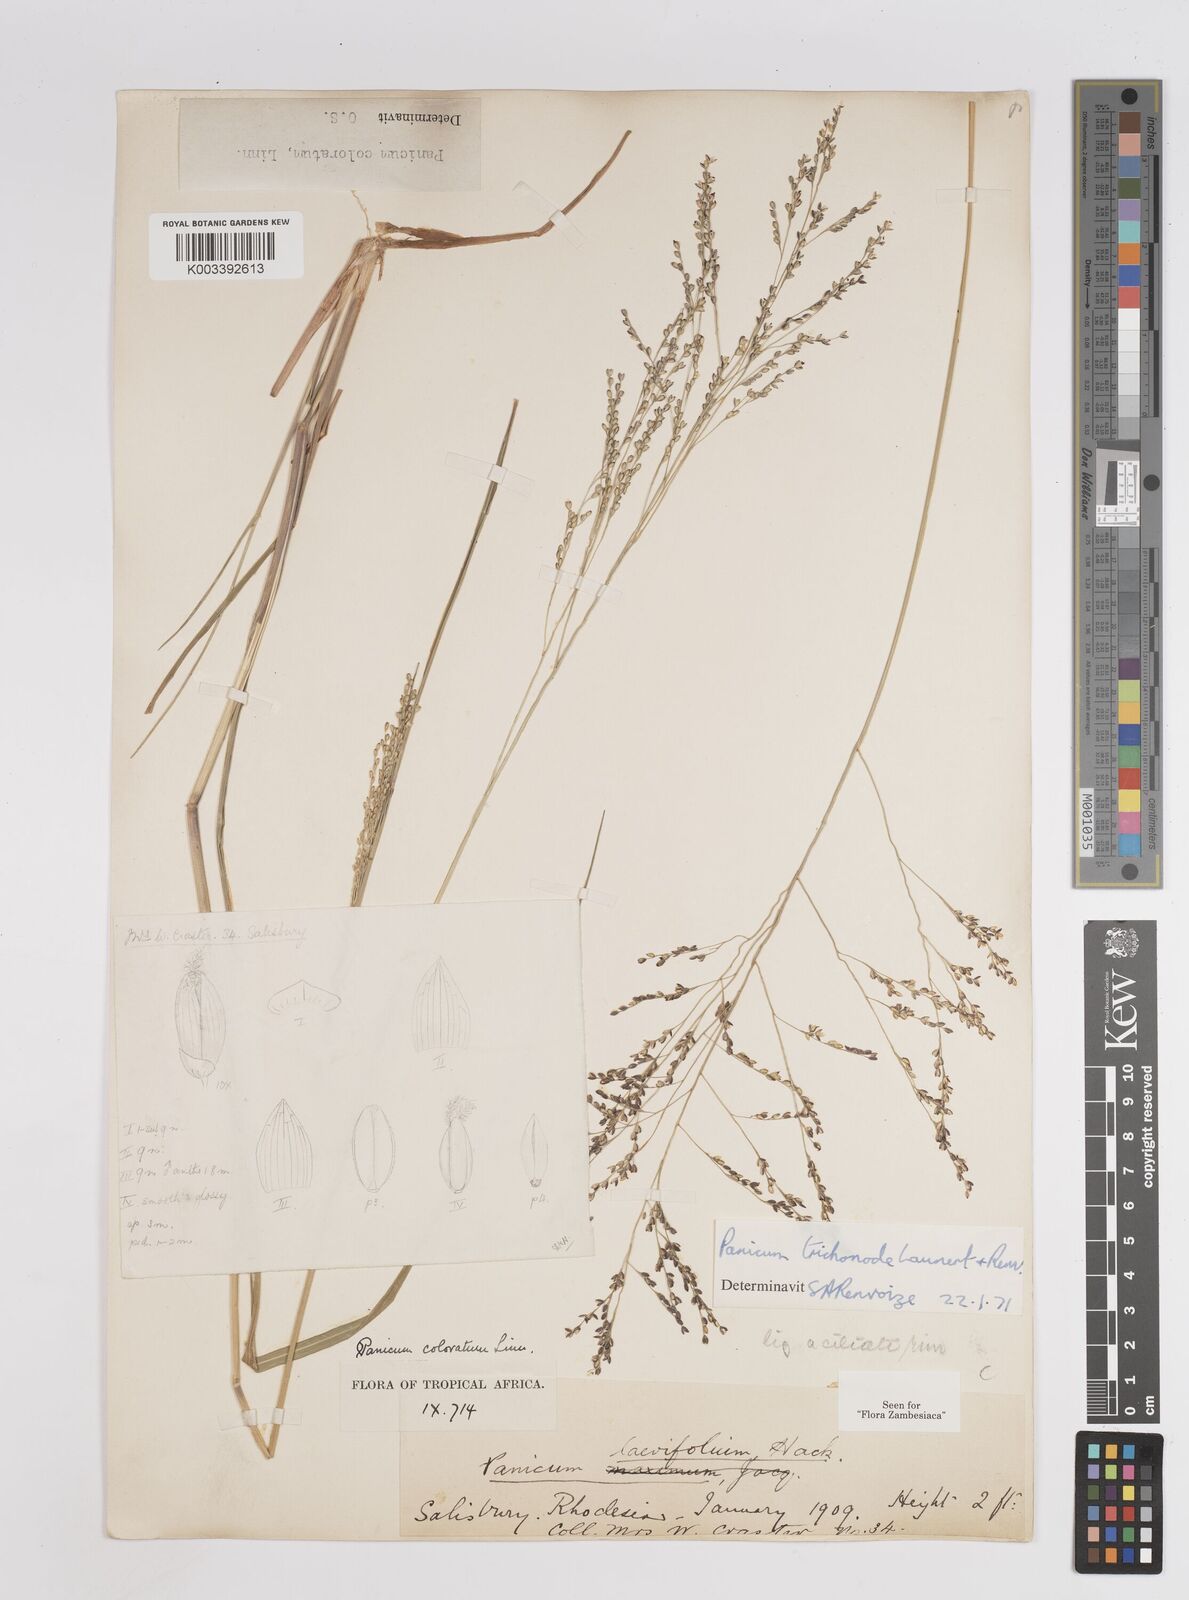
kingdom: Plantae
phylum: Tracheophyta
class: Liliopsida
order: Poales
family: Poaceae
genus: Panicum
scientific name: Panicum trichonode
